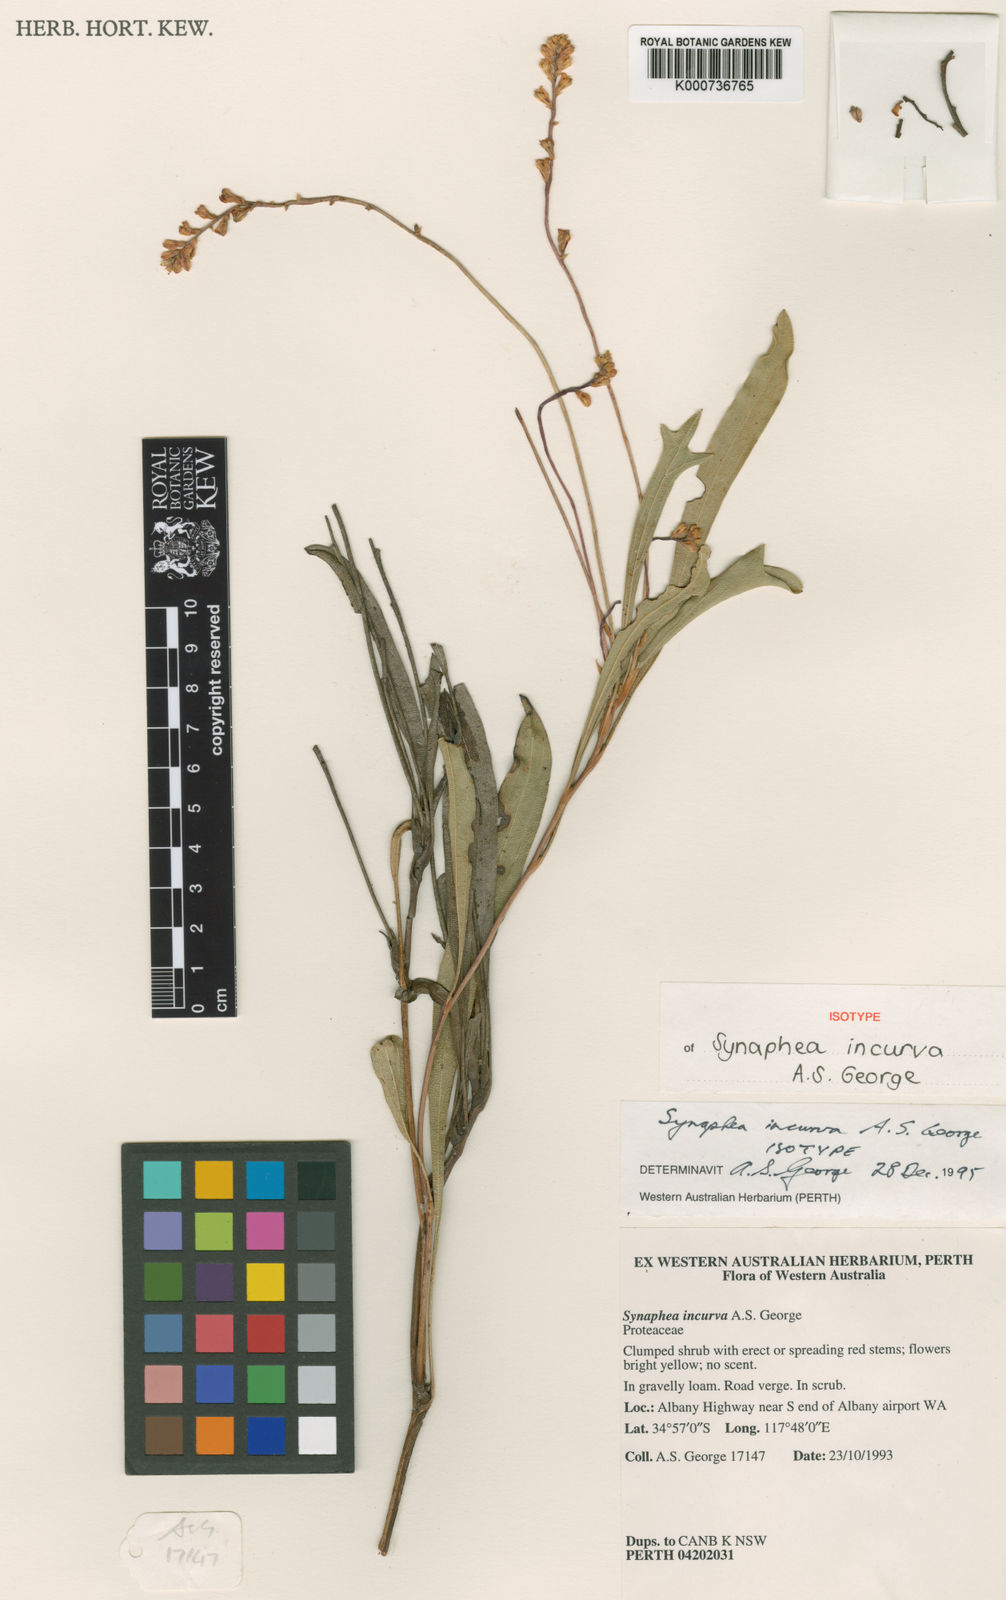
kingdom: Plantae
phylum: Tracheophyta
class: Magnoliopsida
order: Proteales
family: Proteaceae
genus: Synaphea
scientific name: Synaphea incurva
